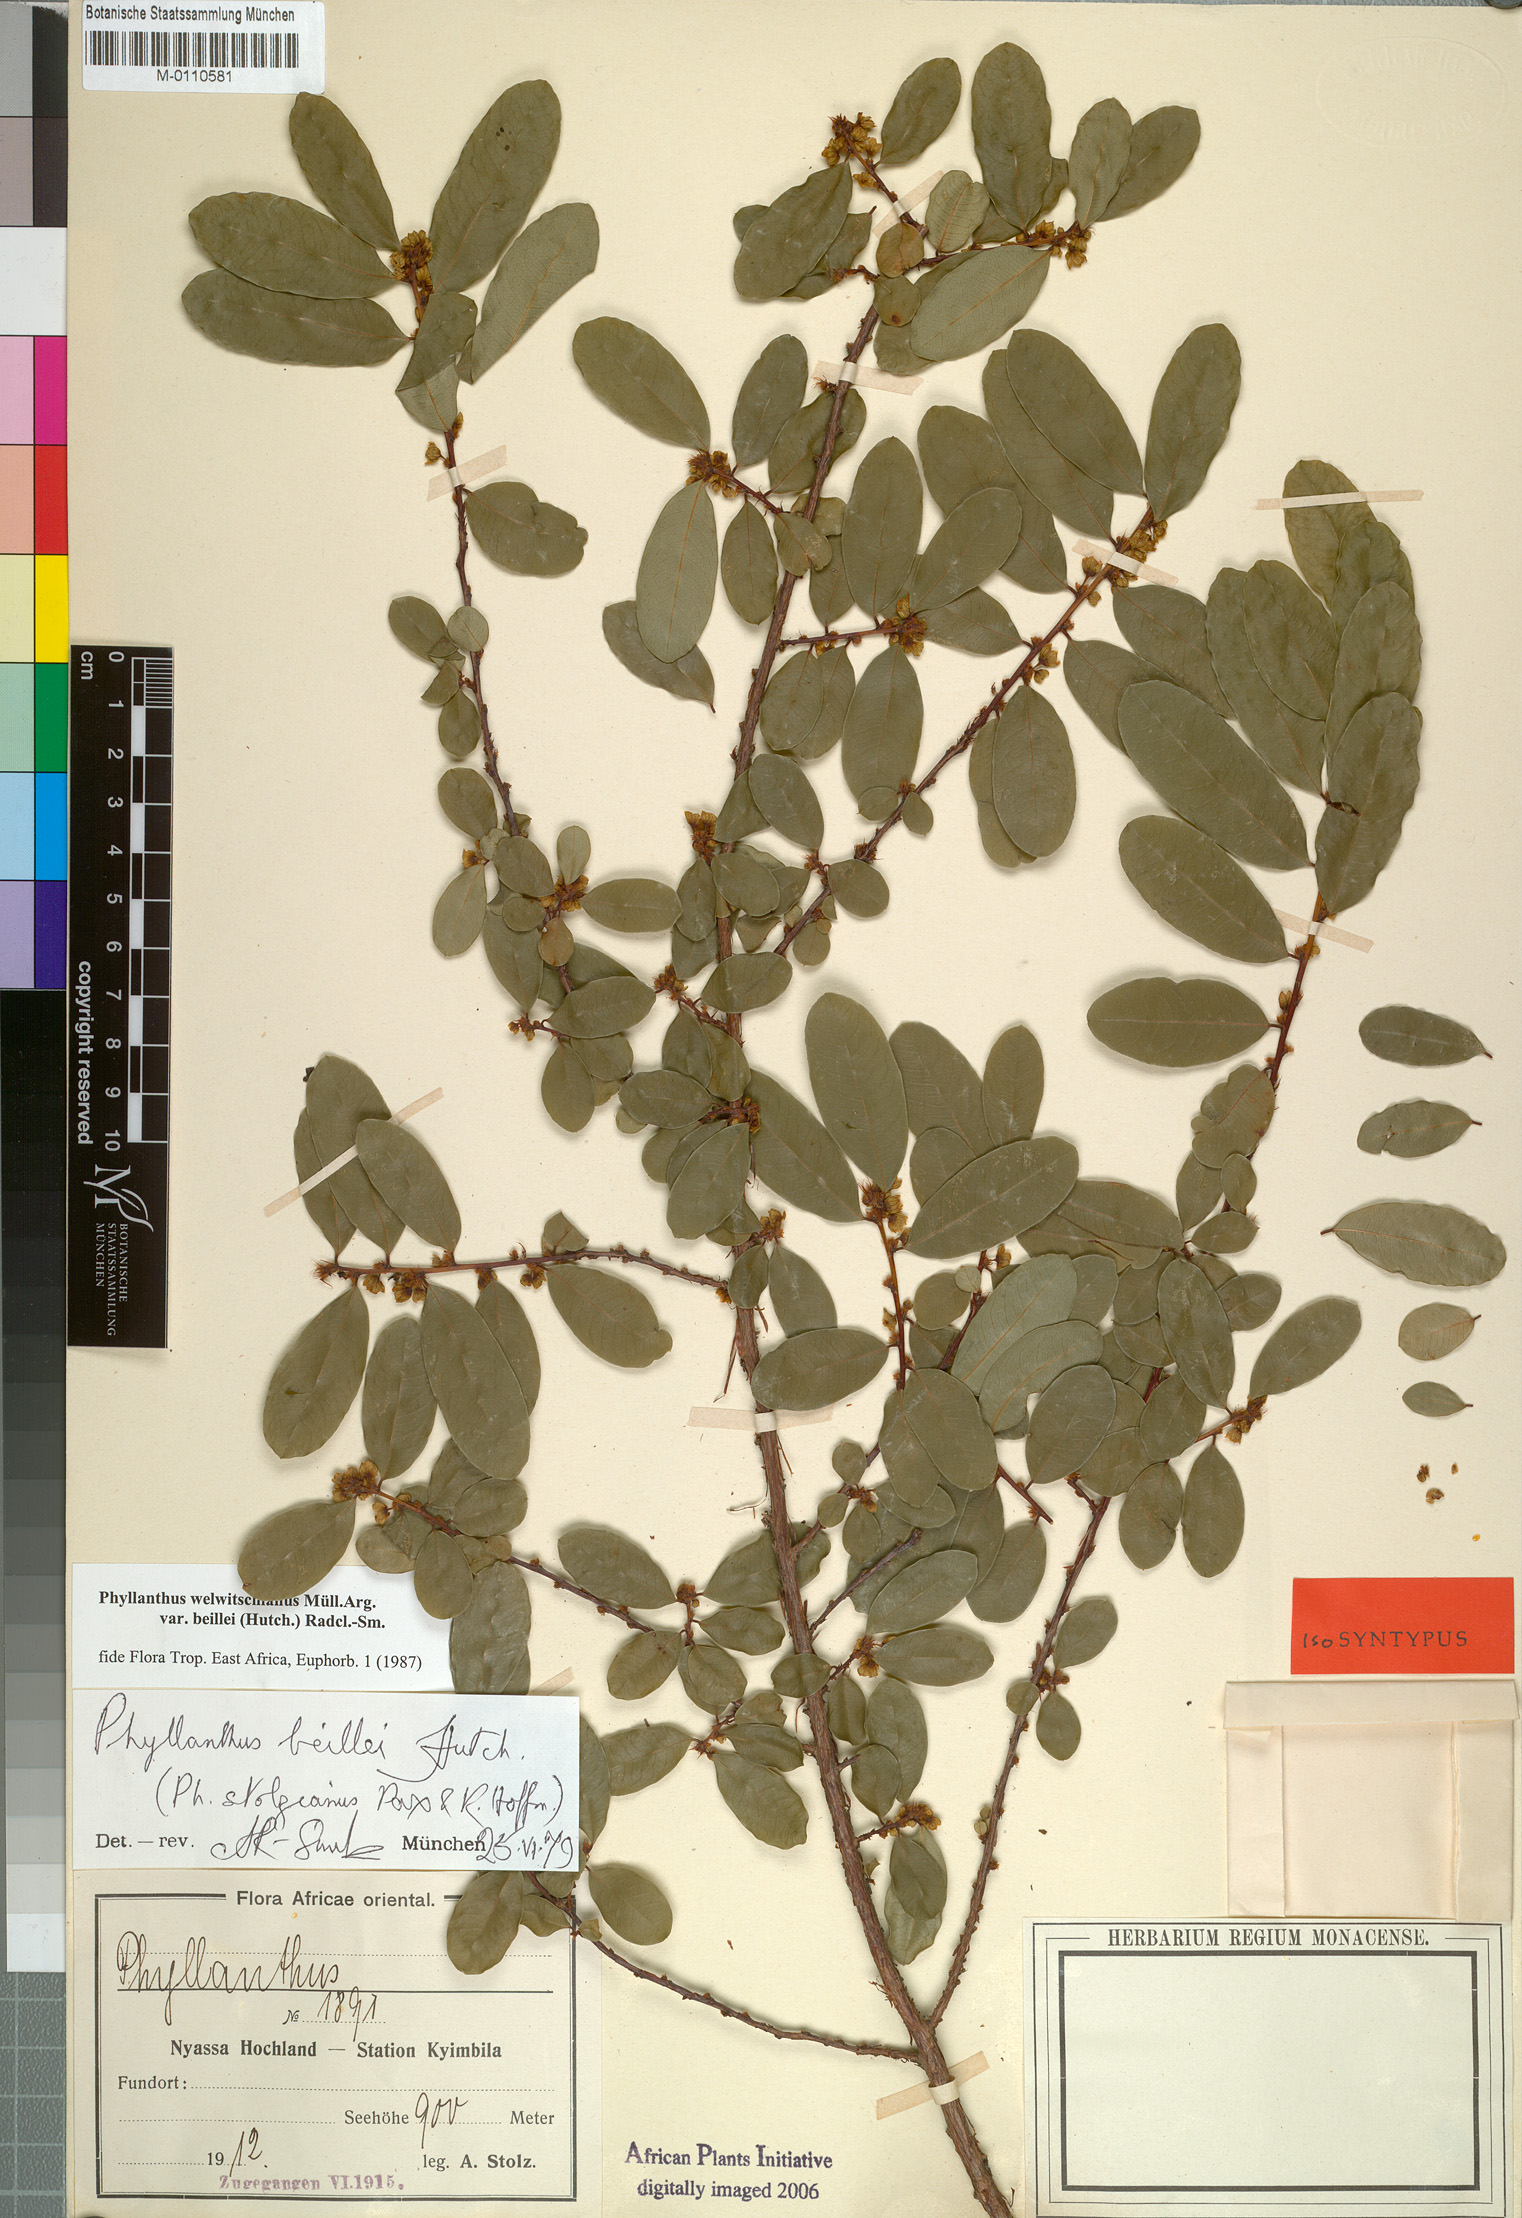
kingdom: Plantae
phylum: Tracheophyta
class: Magnoliopsida
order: Malpighiales
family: Phyllanthaceae
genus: Phyllanthus
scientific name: Phyllanthus welwitschianus
